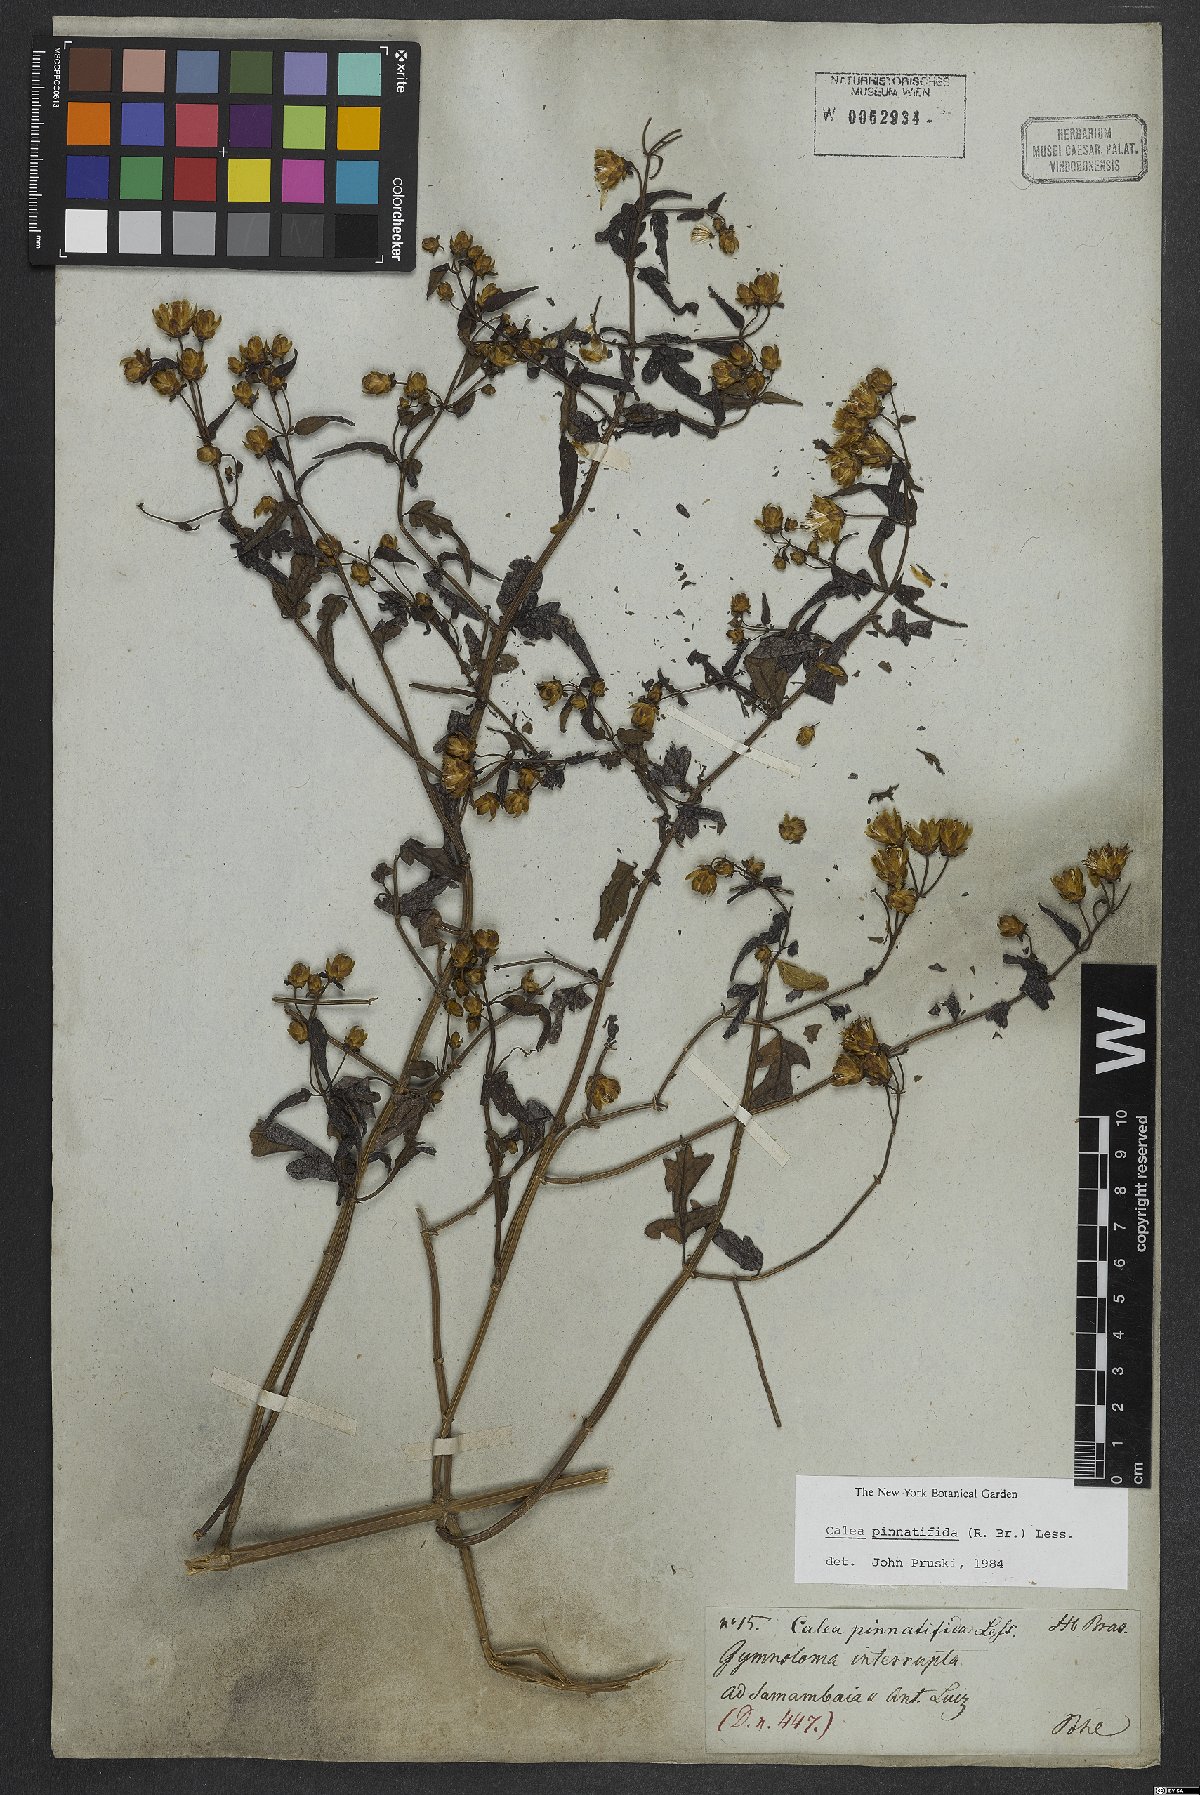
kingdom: Plantae
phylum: Tracheophyta
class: Magnoliopsida
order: Asterales
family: Asteraceae
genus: Calea
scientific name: Calea pinnatifida
